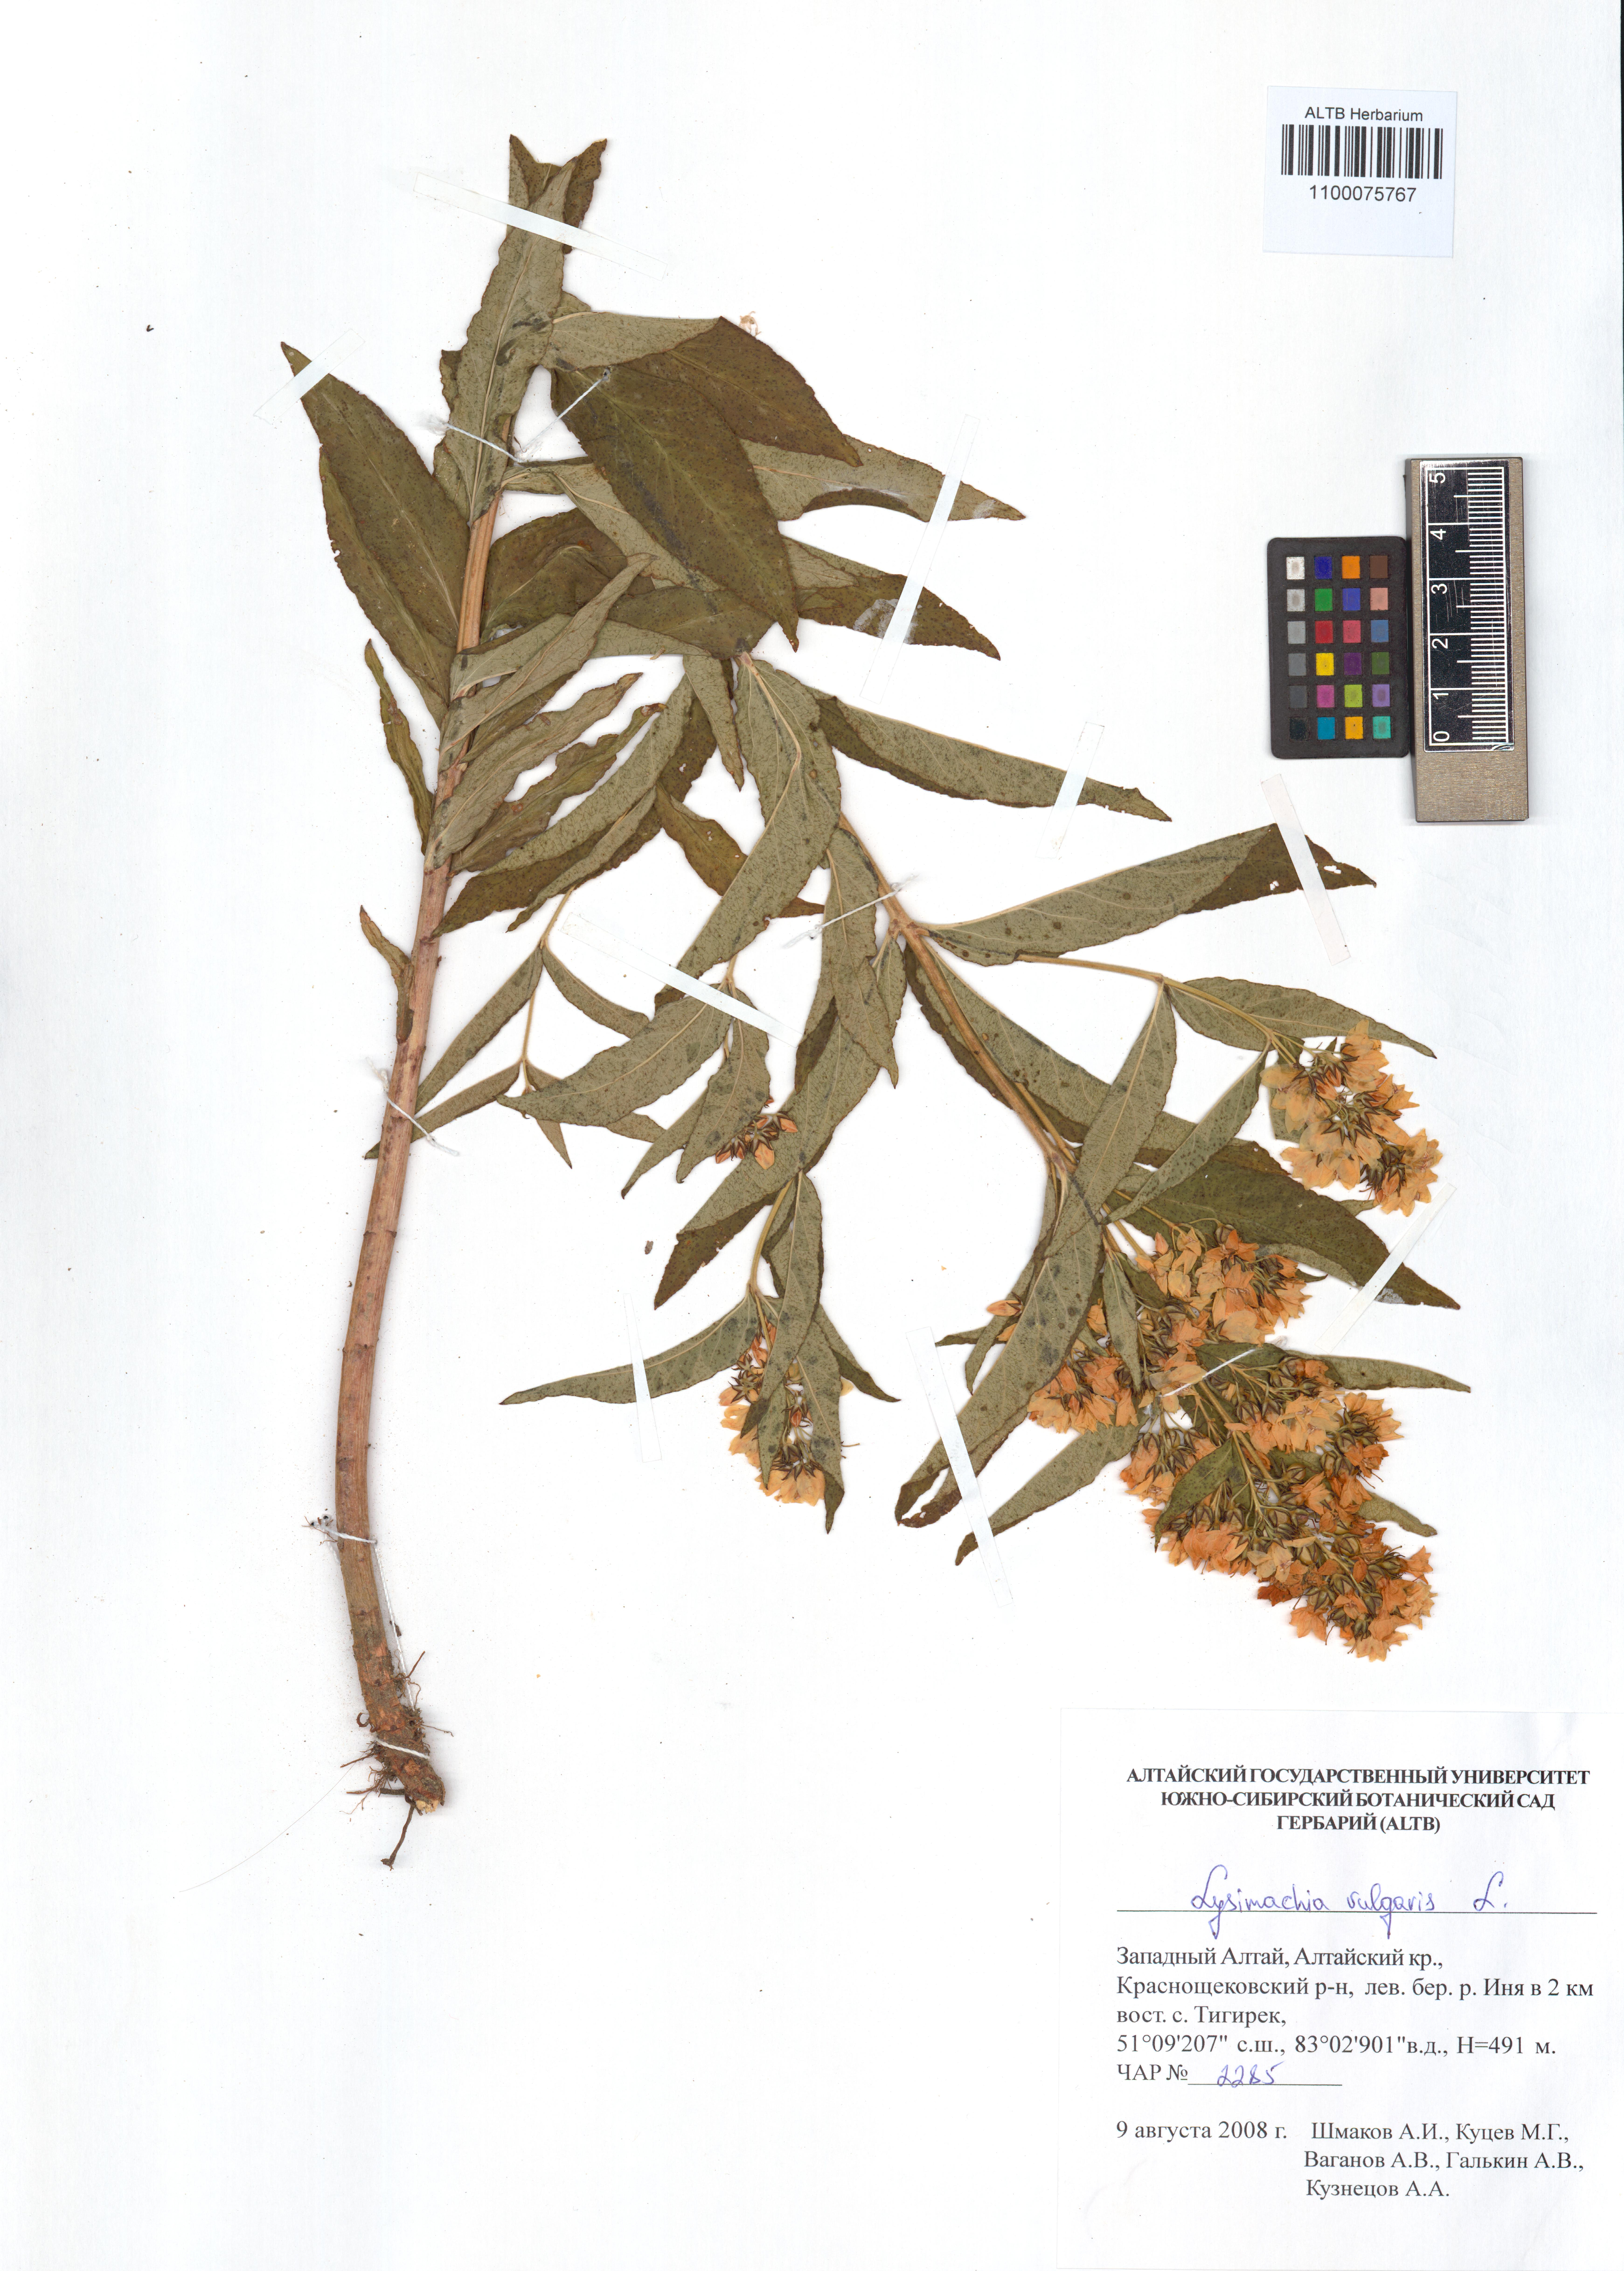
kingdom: Plantae
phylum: Tracheophyta
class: Magnoliopsida
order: Ericales
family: Primulaceae
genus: Lysimachia
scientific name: Lysimachia vulgaris
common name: Yellow loosestrife
